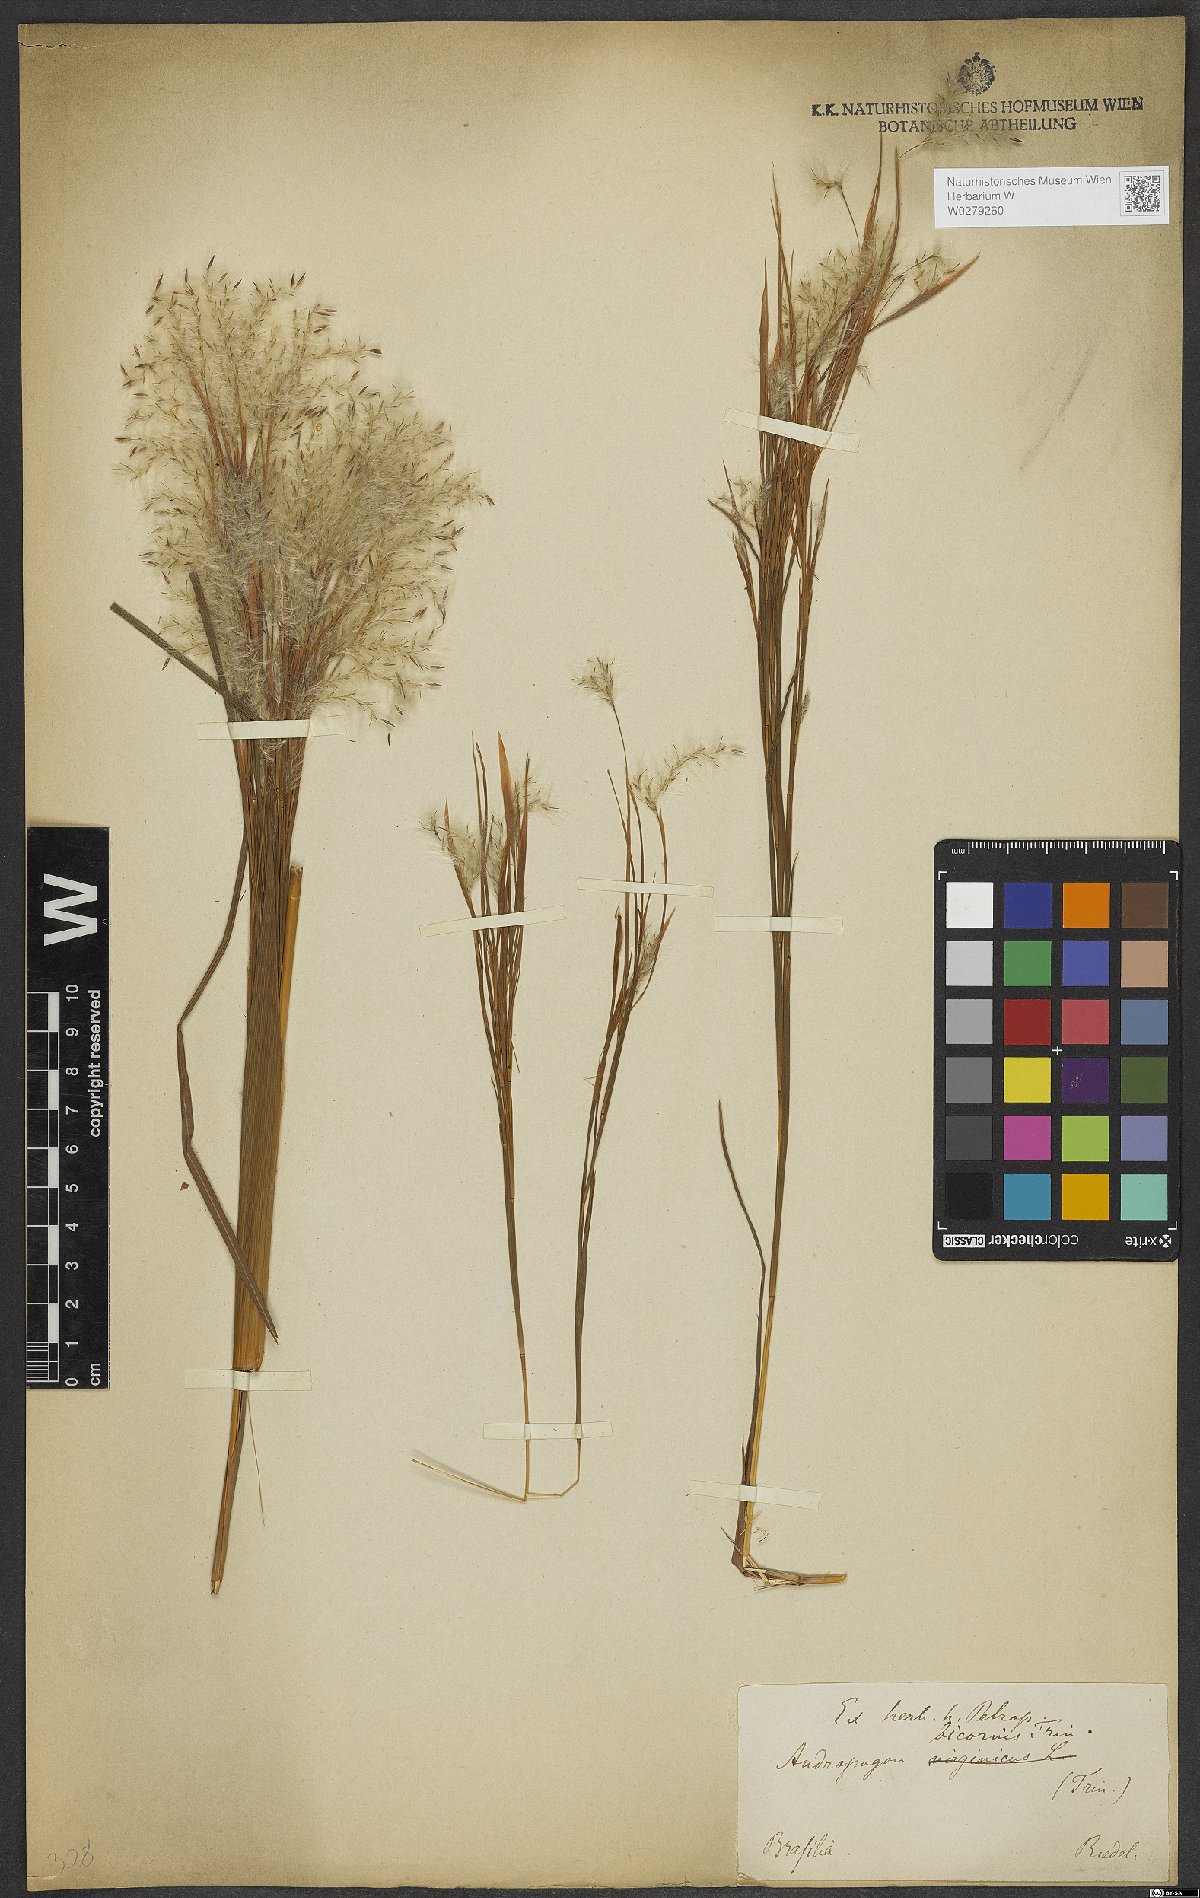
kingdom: Plantae
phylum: Tracheophyta
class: Liliopsida
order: Poales
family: Poaceae
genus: Andropogon
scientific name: Andropogon bicornis
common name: West indian foxtail grass
